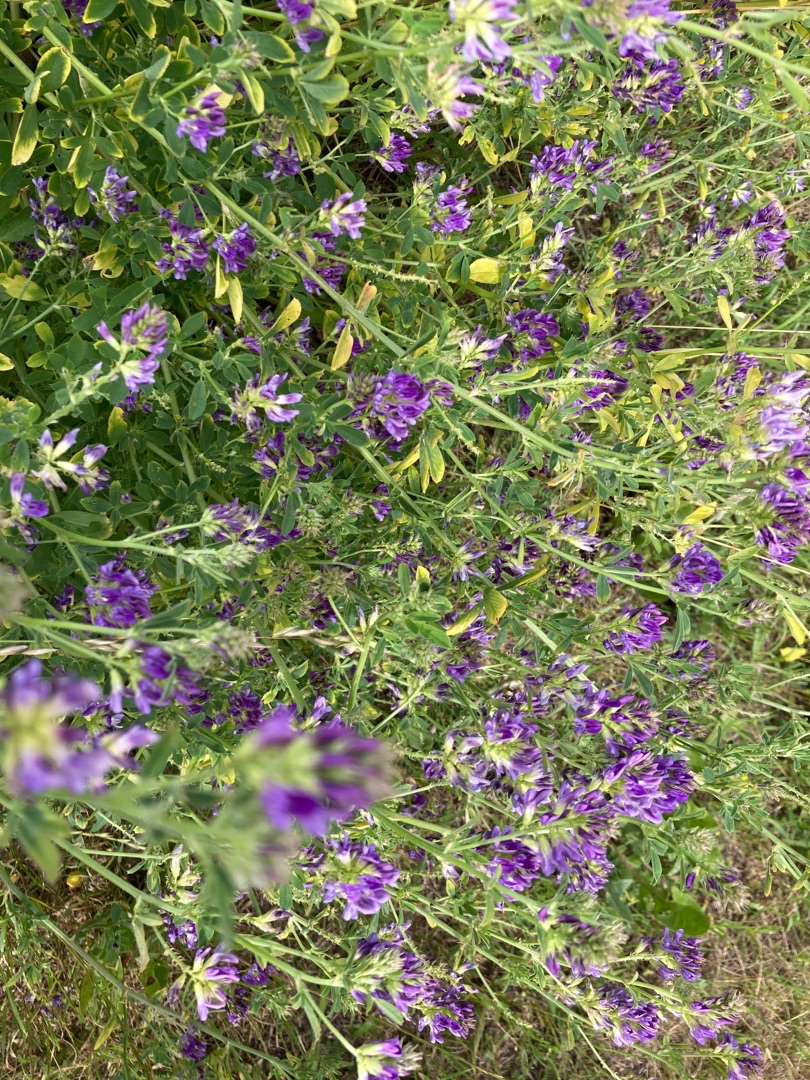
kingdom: Plantae
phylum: Tracheophyta
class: Magnoliopsida
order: Fabales
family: Fabaceae
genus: Medicago
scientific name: Medicago sativa
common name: Foderlucerne
